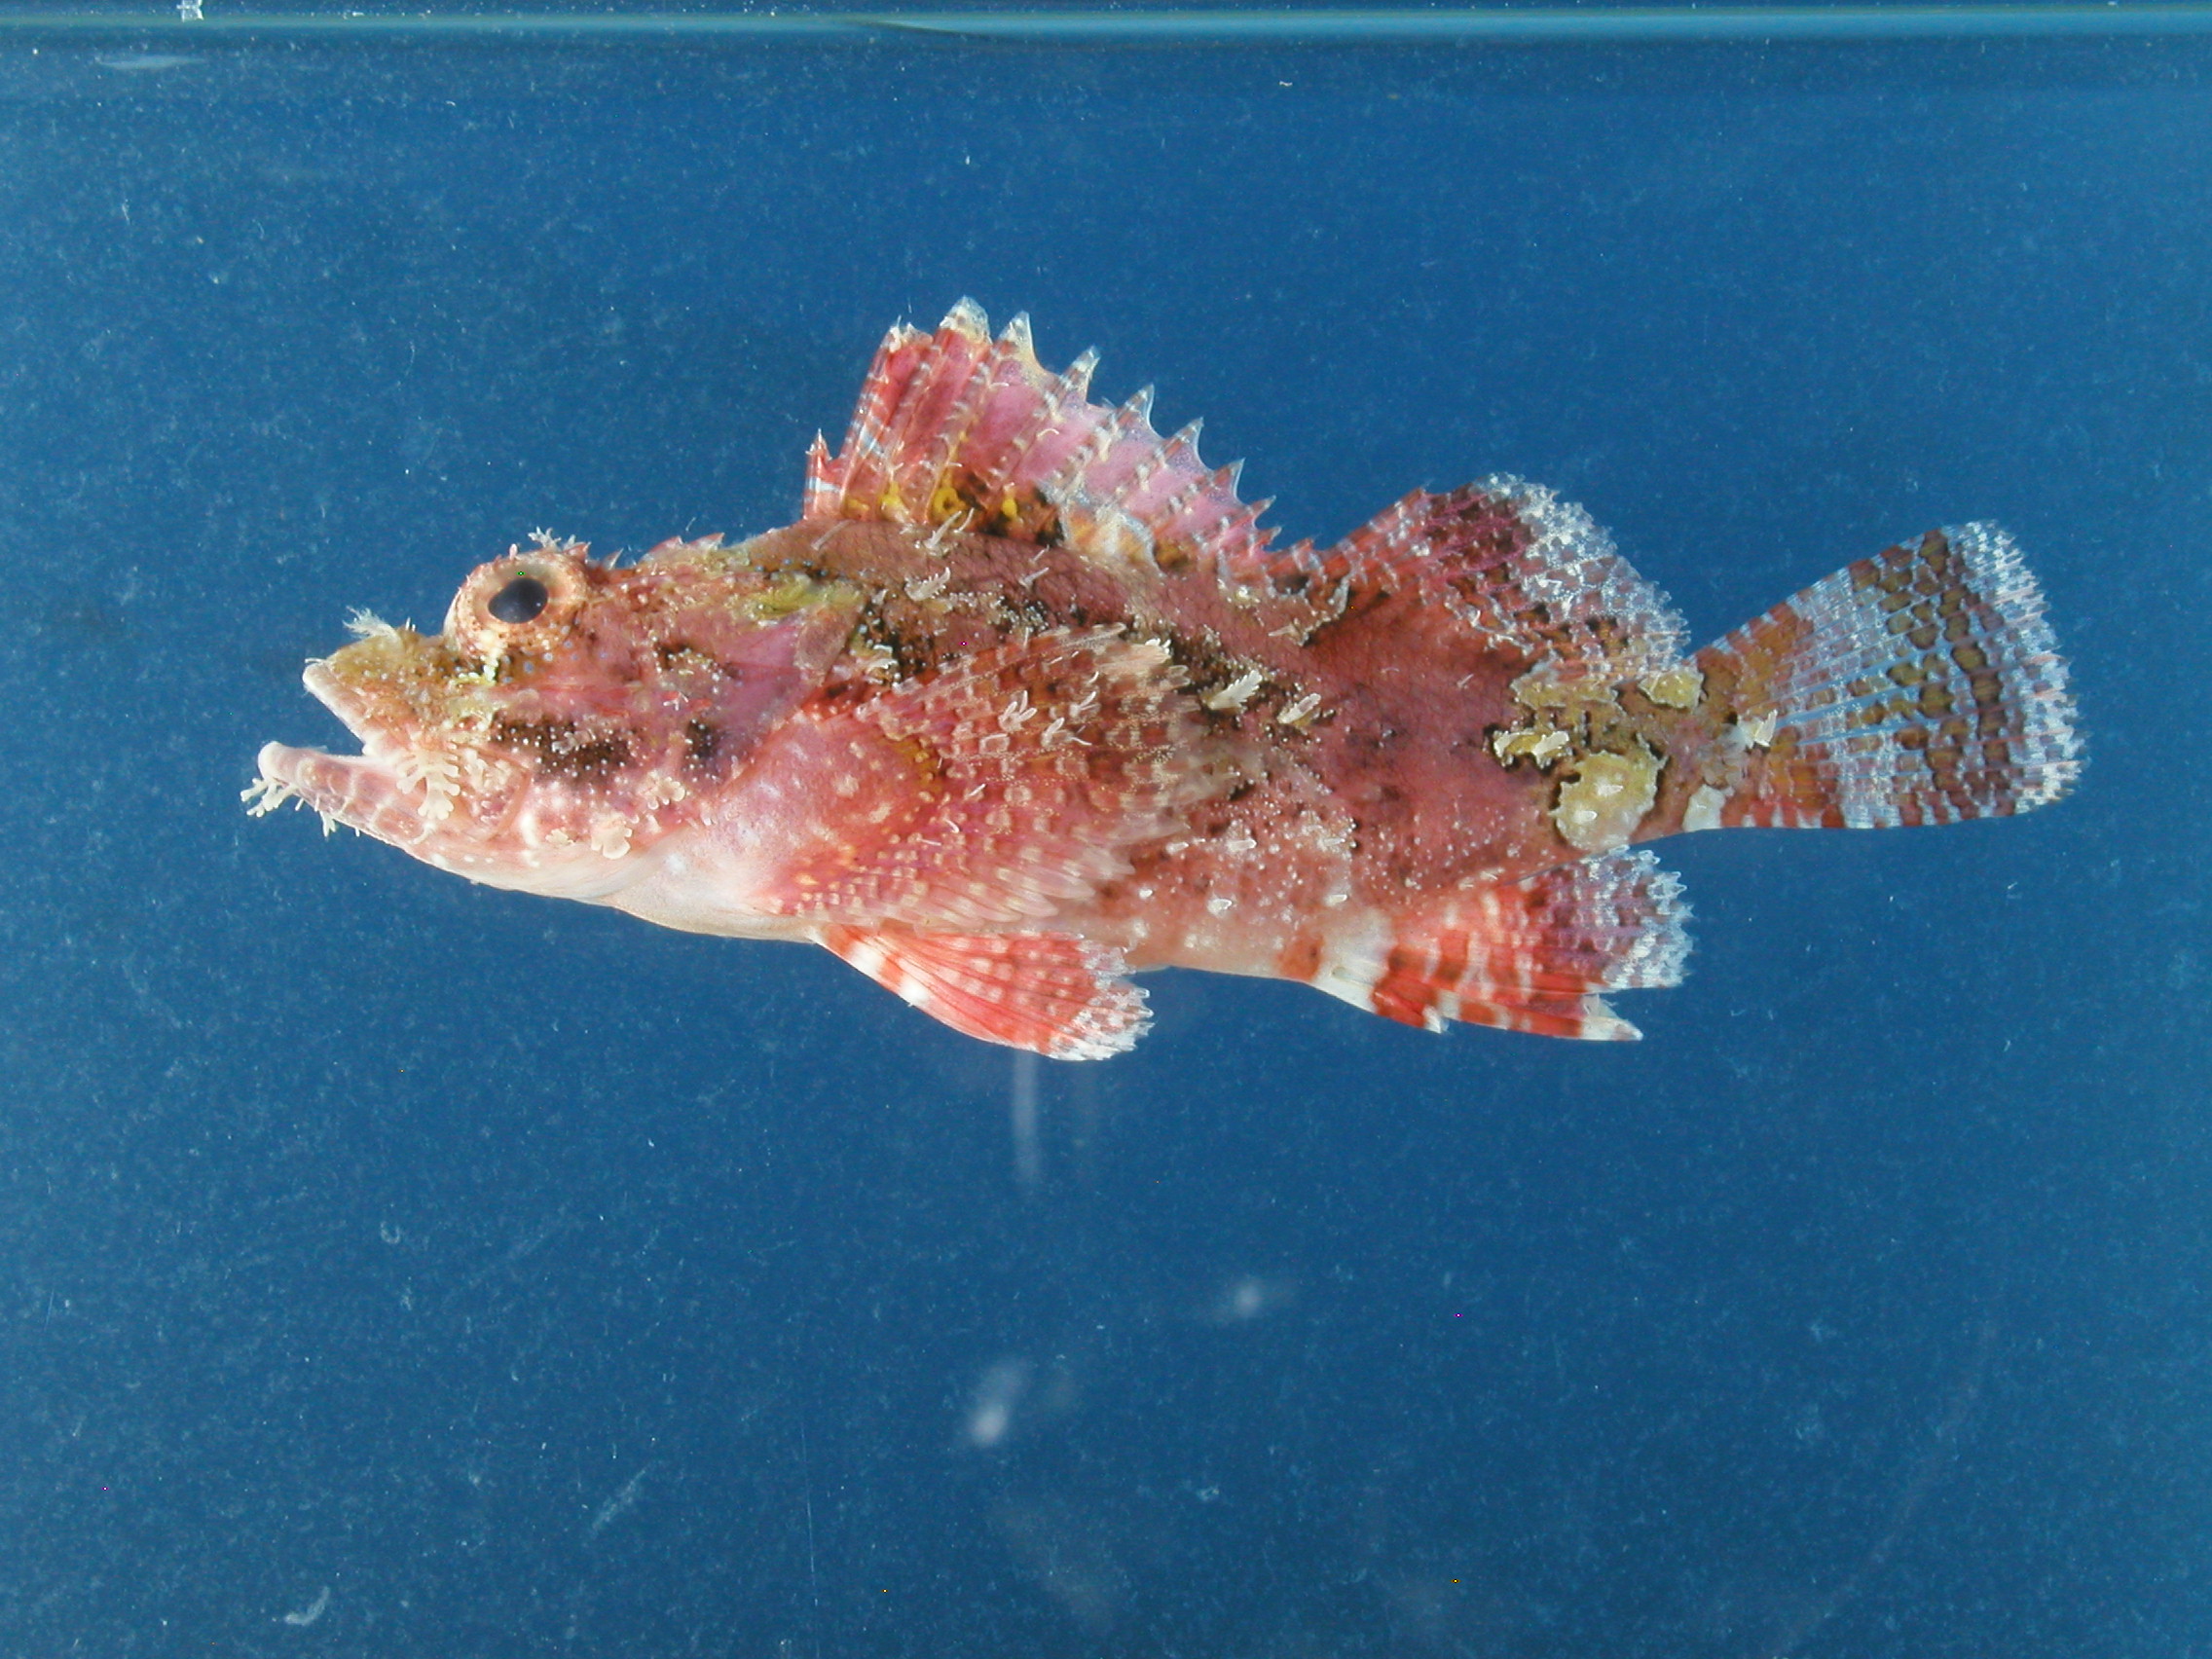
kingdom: Animalia
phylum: Chordata
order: Scorpaeniformes
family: Scorpaenidae
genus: Scorpaenopsis
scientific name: Scorpaenopsis longispina
